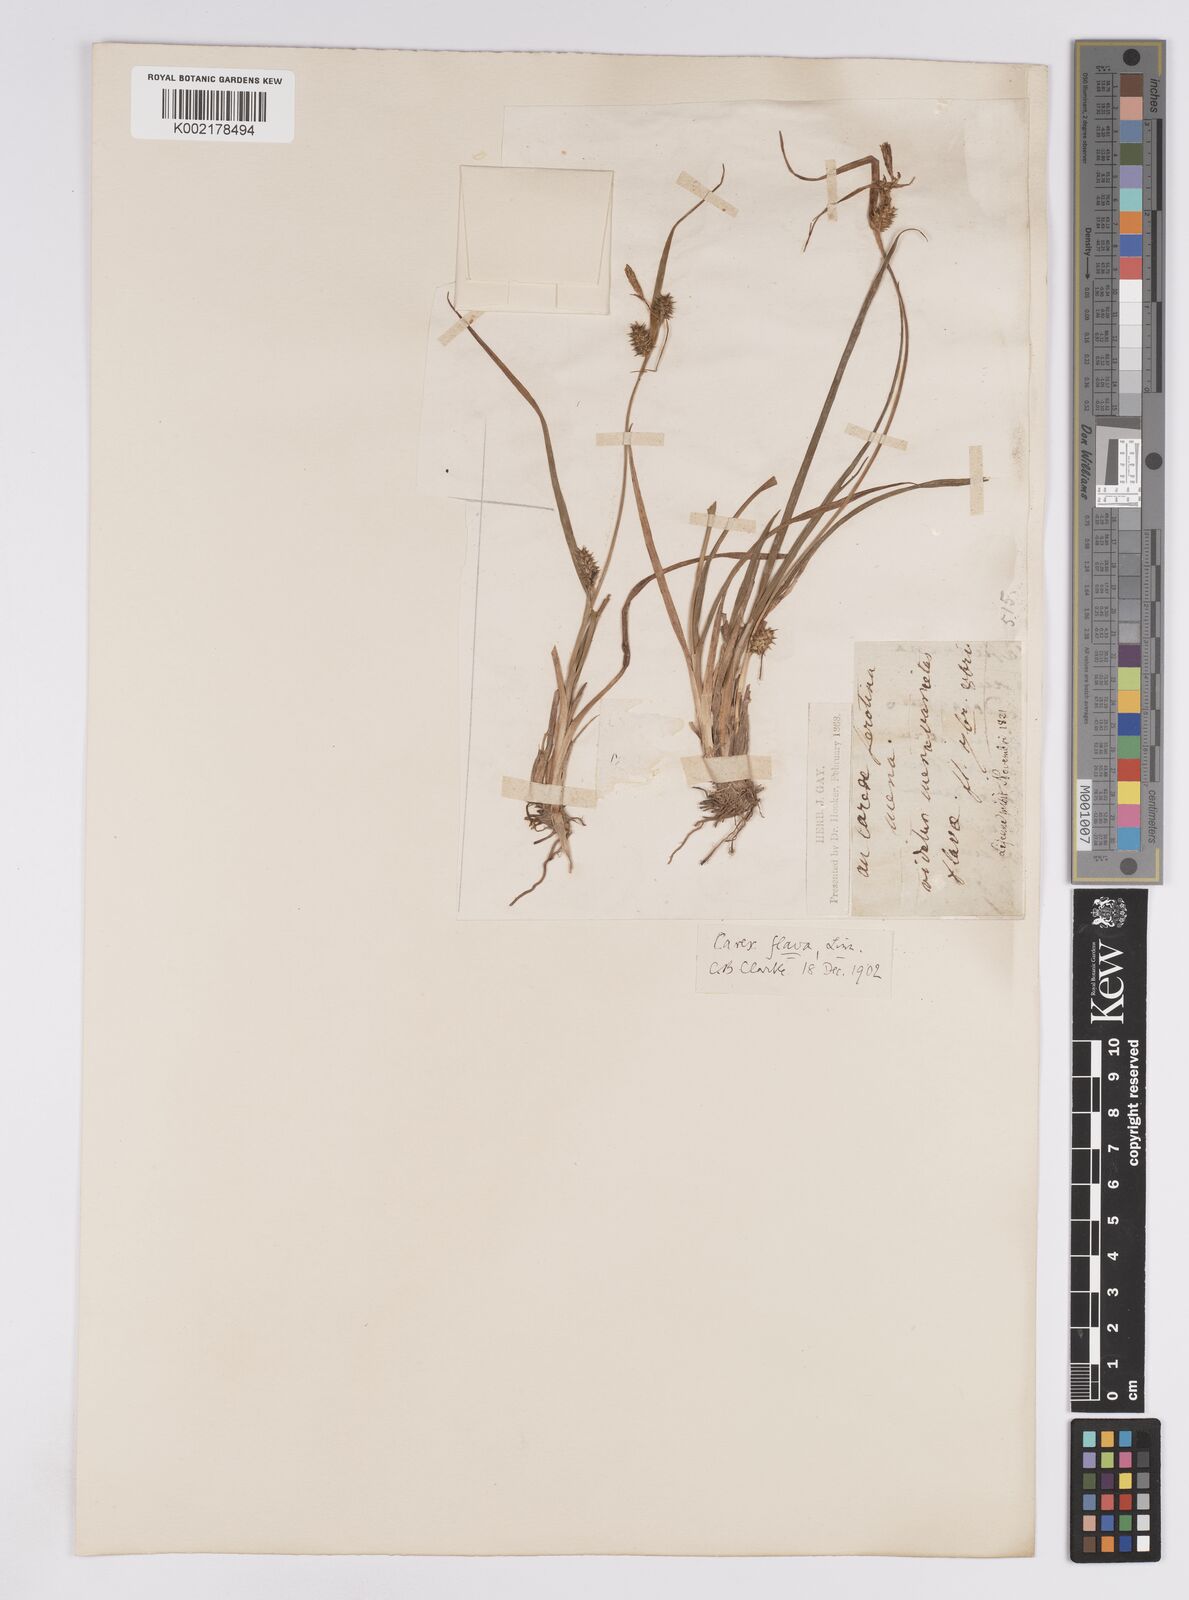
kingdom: Plantae
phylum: Tracheophyta
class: Liliopsida
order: Poales
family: Cyperaceae
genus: Carex
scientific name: Carex demissa
